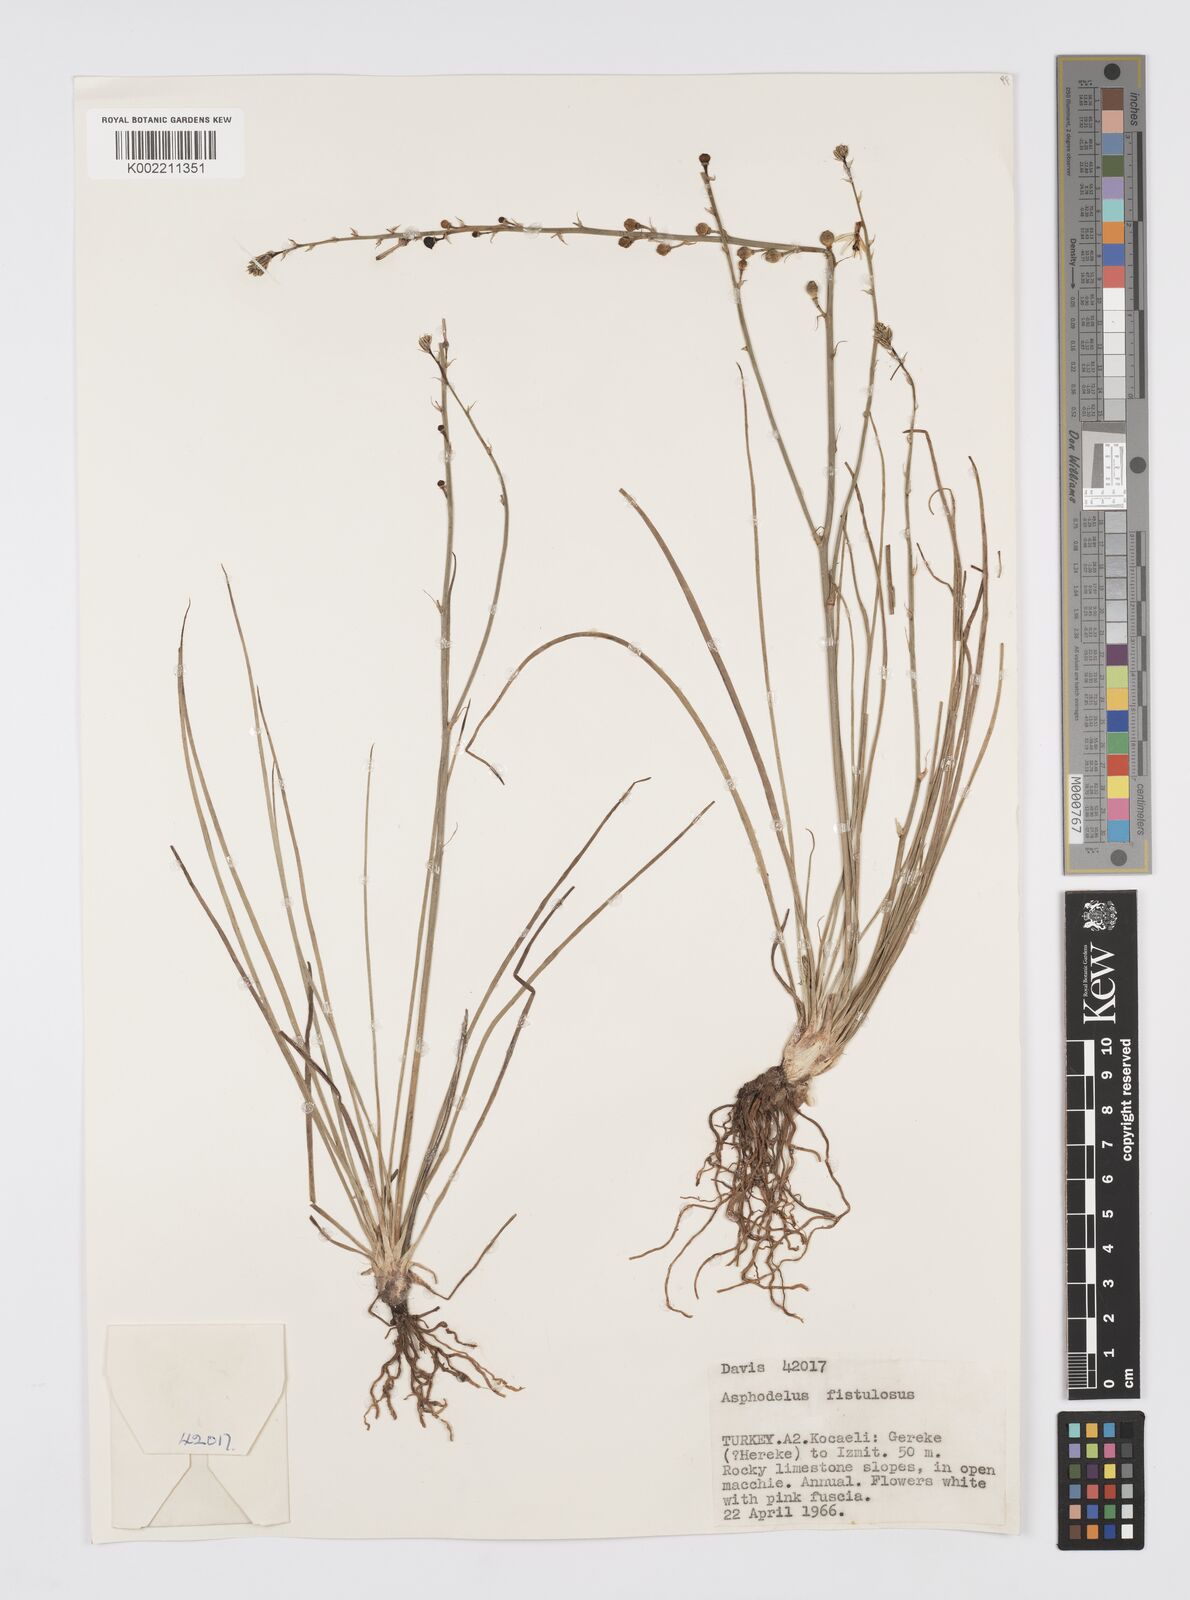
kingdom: Plantae
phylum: Tracheophyta
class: Liliopsida
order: Asparagales
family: Asphodelaceae
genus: Asphodelus
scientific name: Asphodelus tenuifolius
